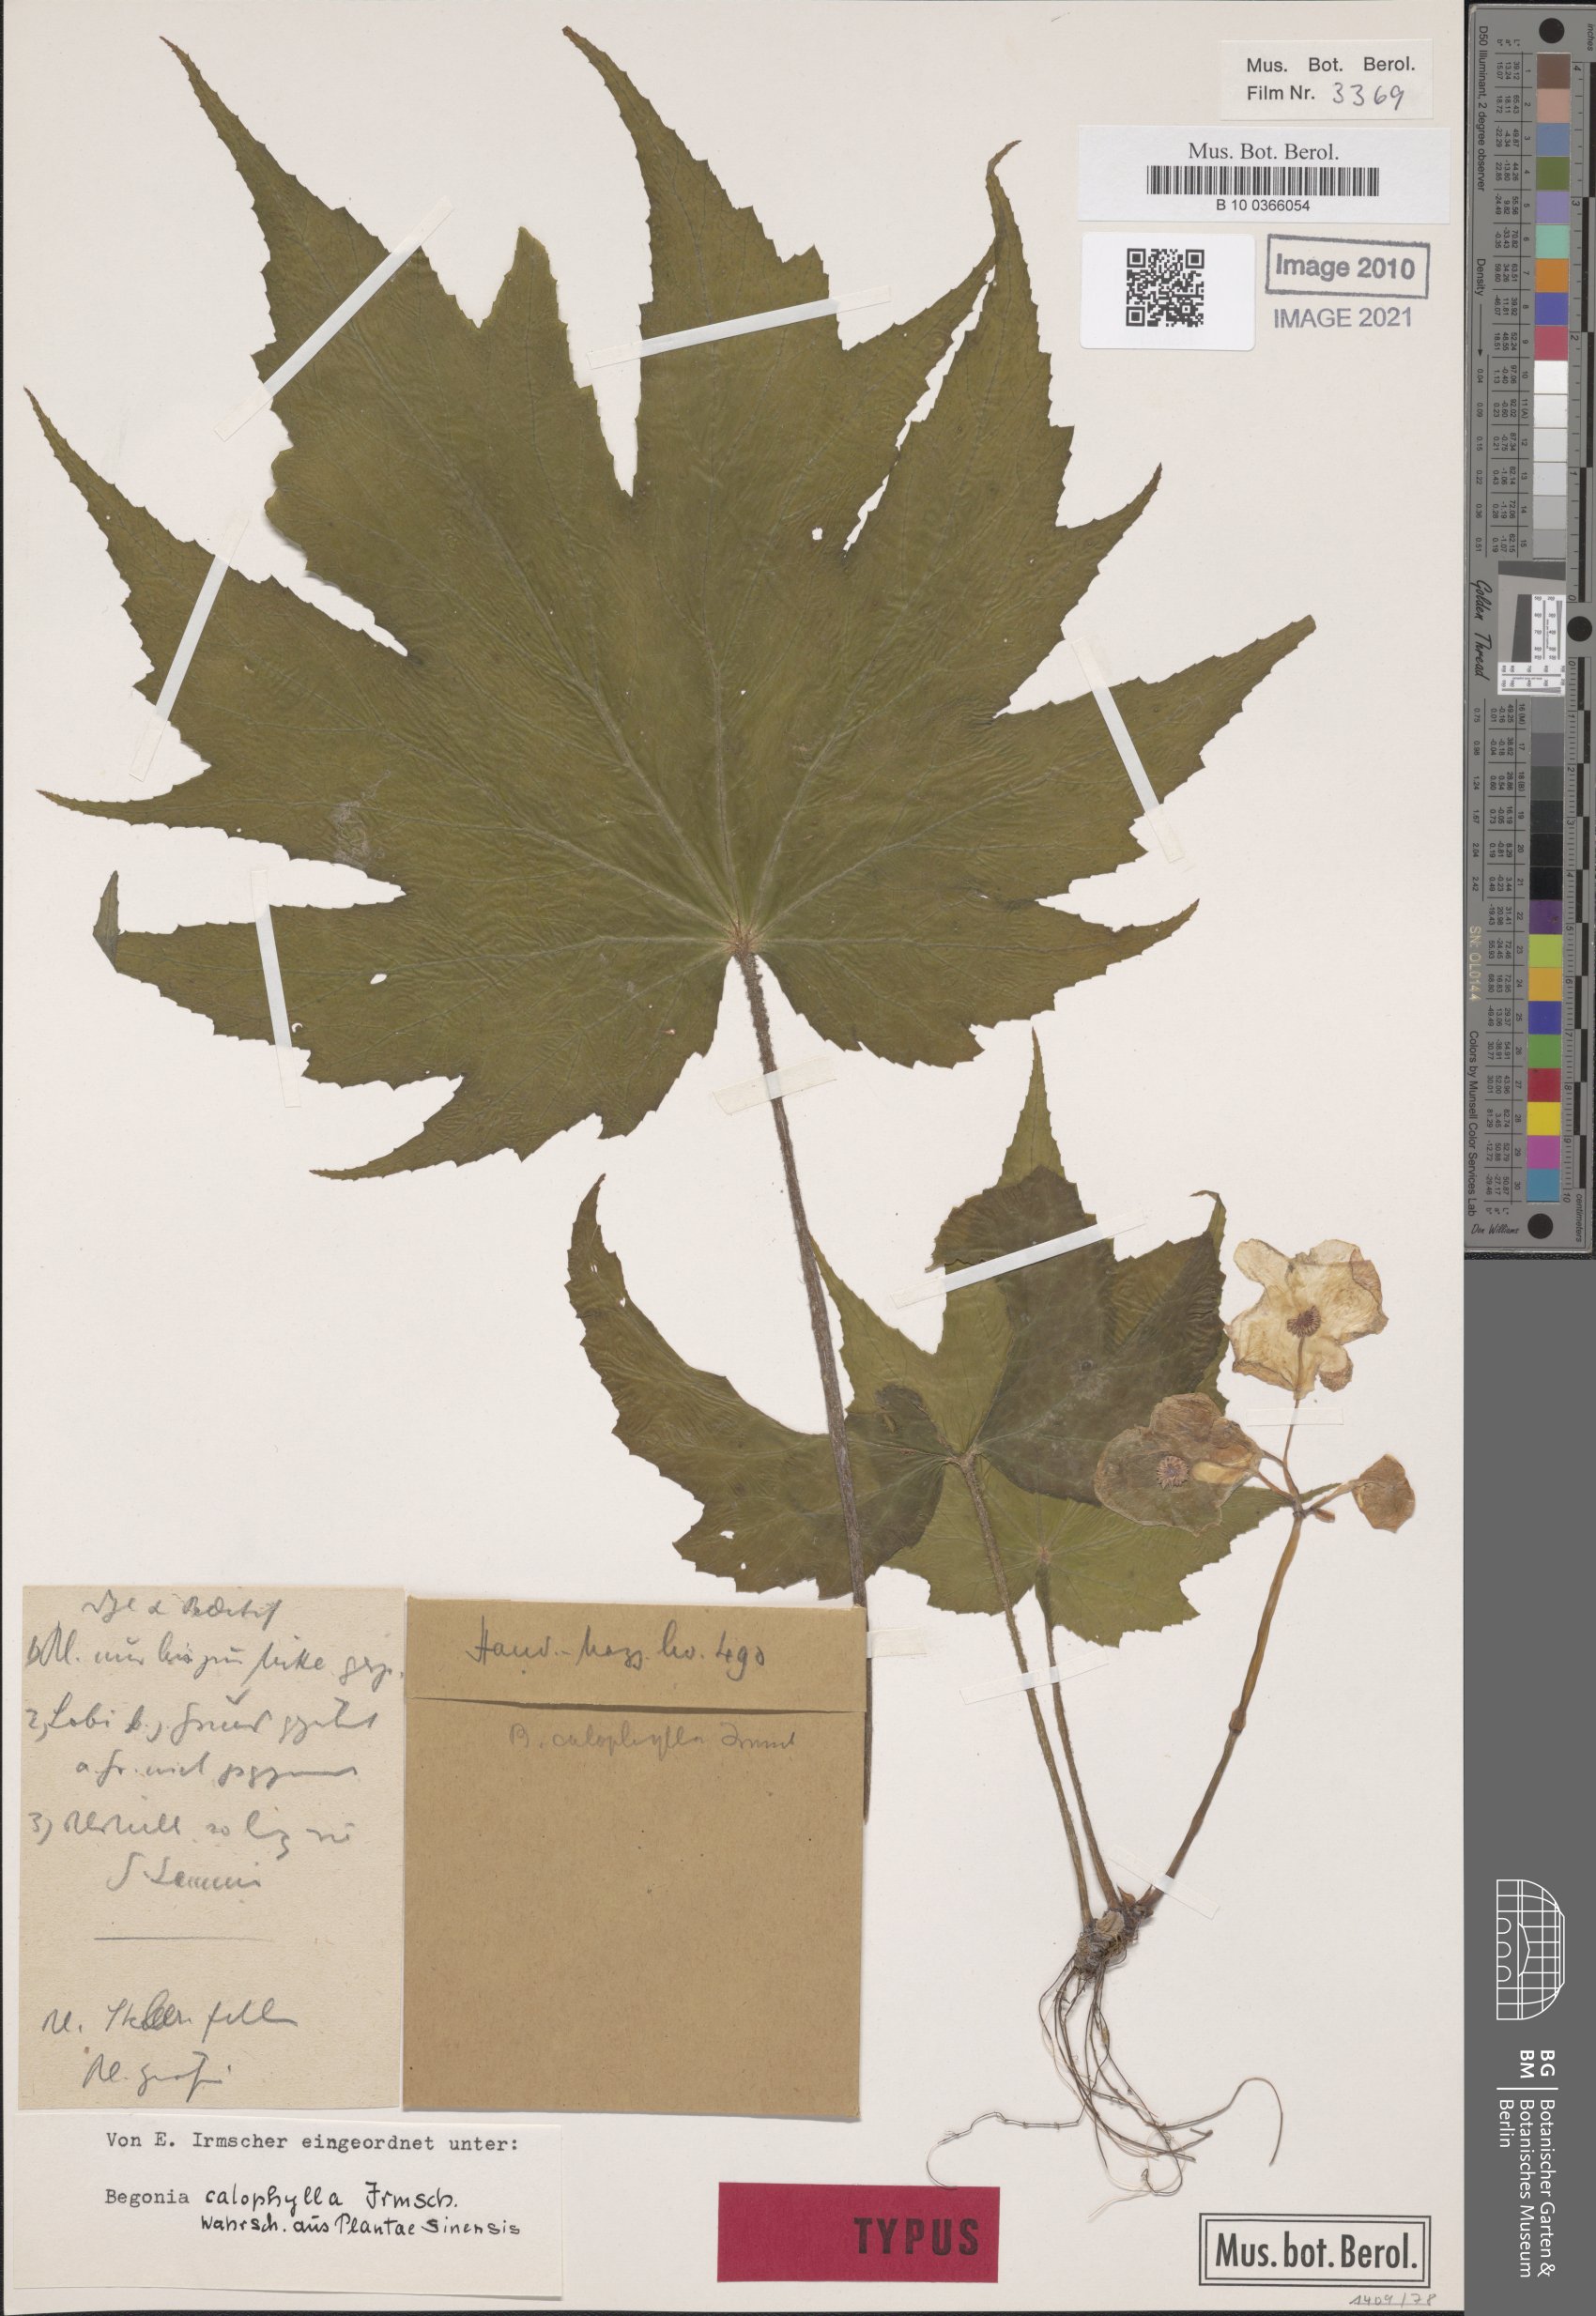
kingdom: Plantae
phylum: Tracheophyta
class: Magnoliopsida
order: Cucurbitales
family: Begoniaceae
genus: Begonia
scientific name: Begonia algaia
